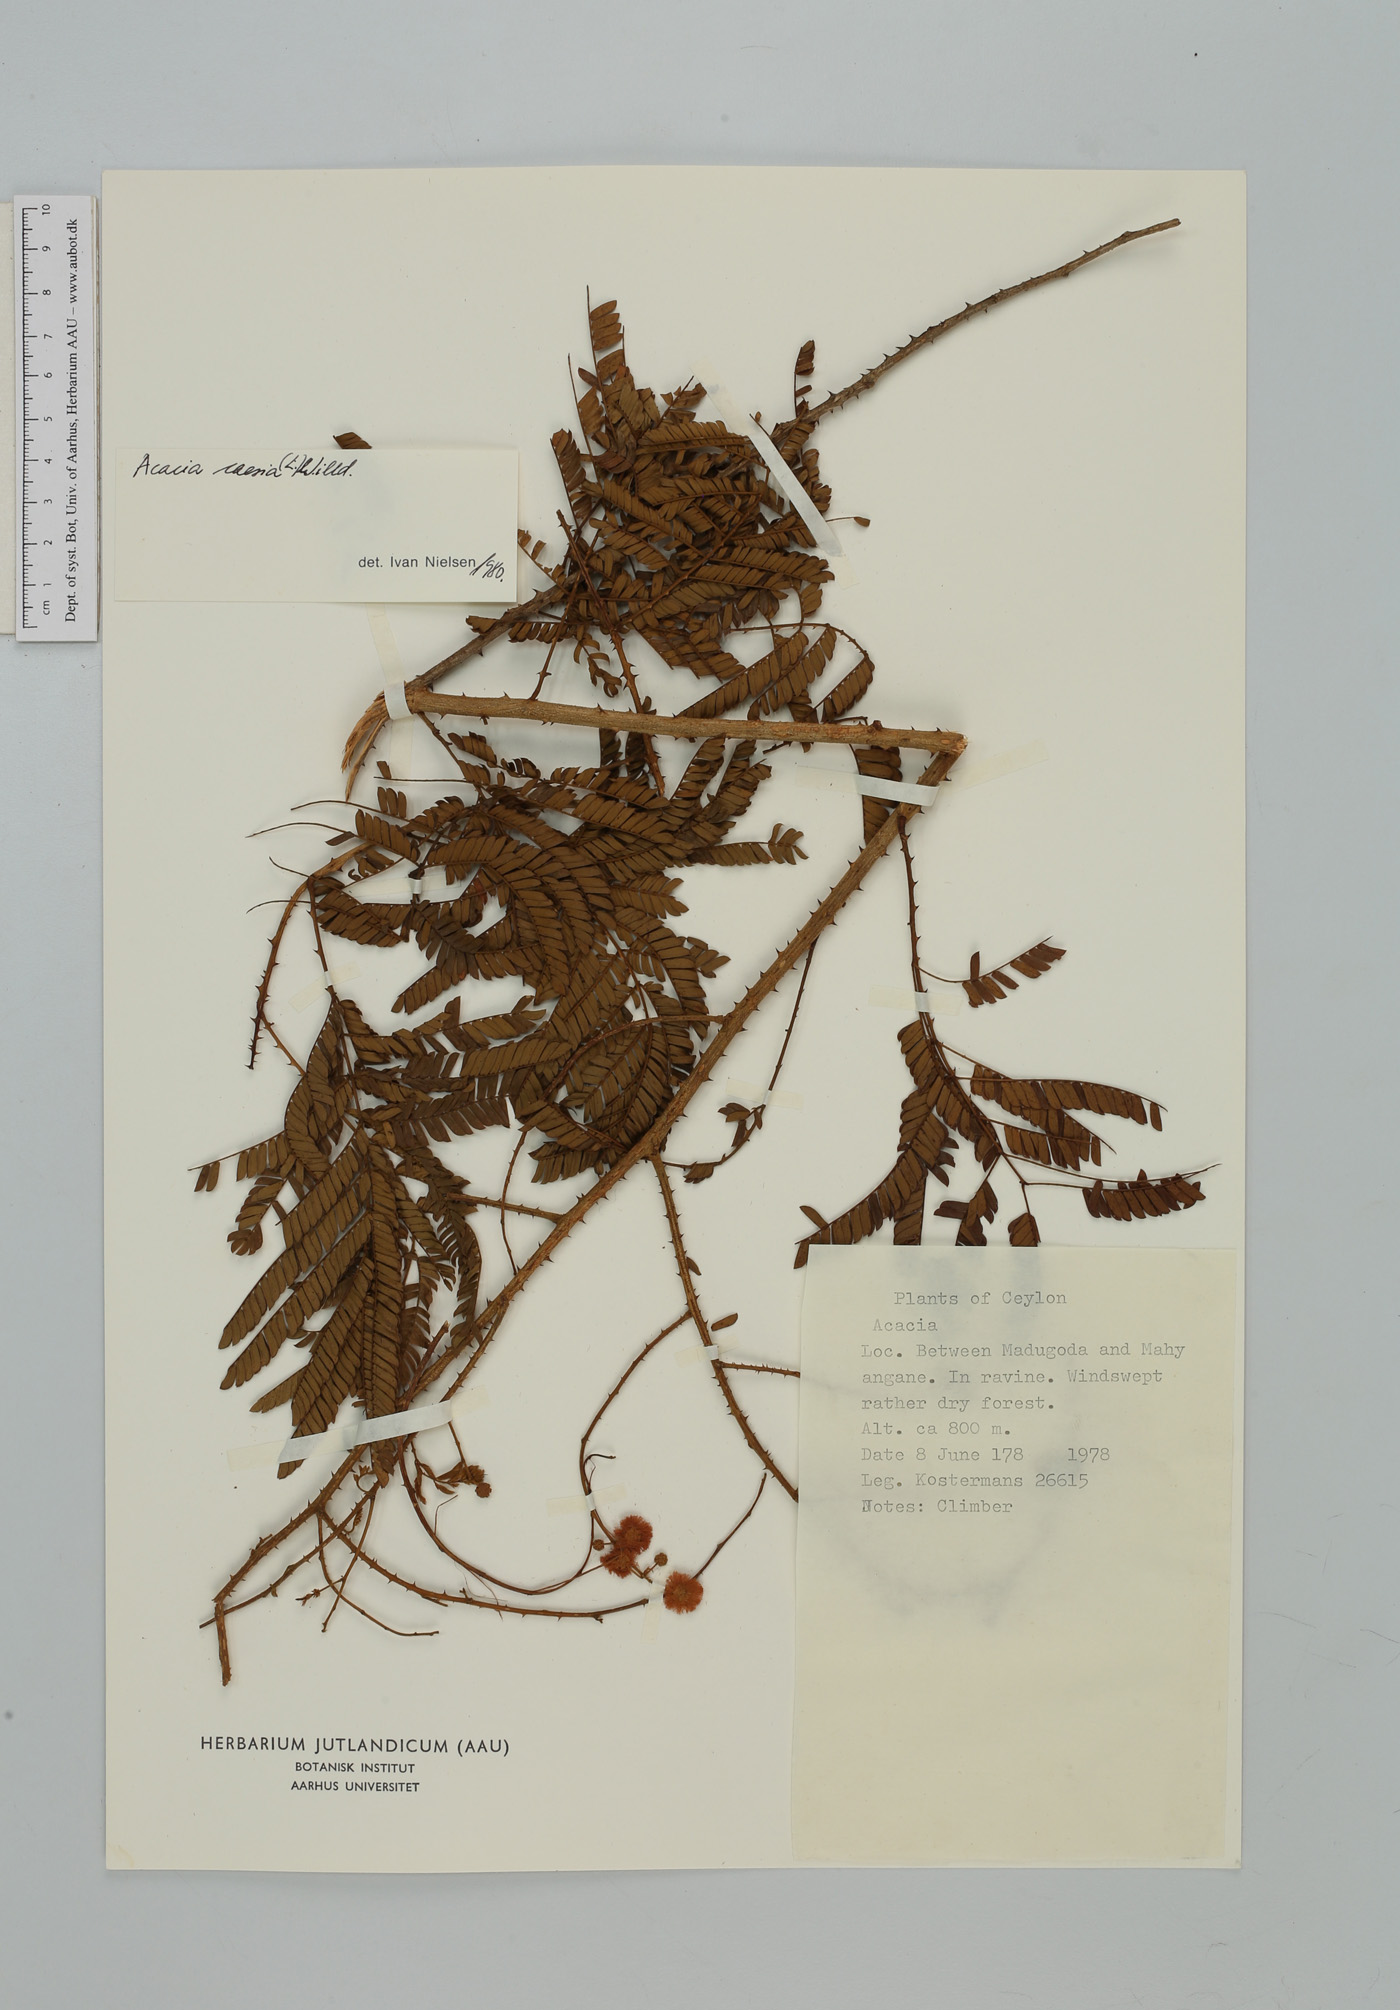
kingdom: Plantae
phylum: Tracheophyta
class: Magnoliopsida
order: Fabales
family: Fabaceae
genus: Senegalia
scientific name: Senegalia caesia
